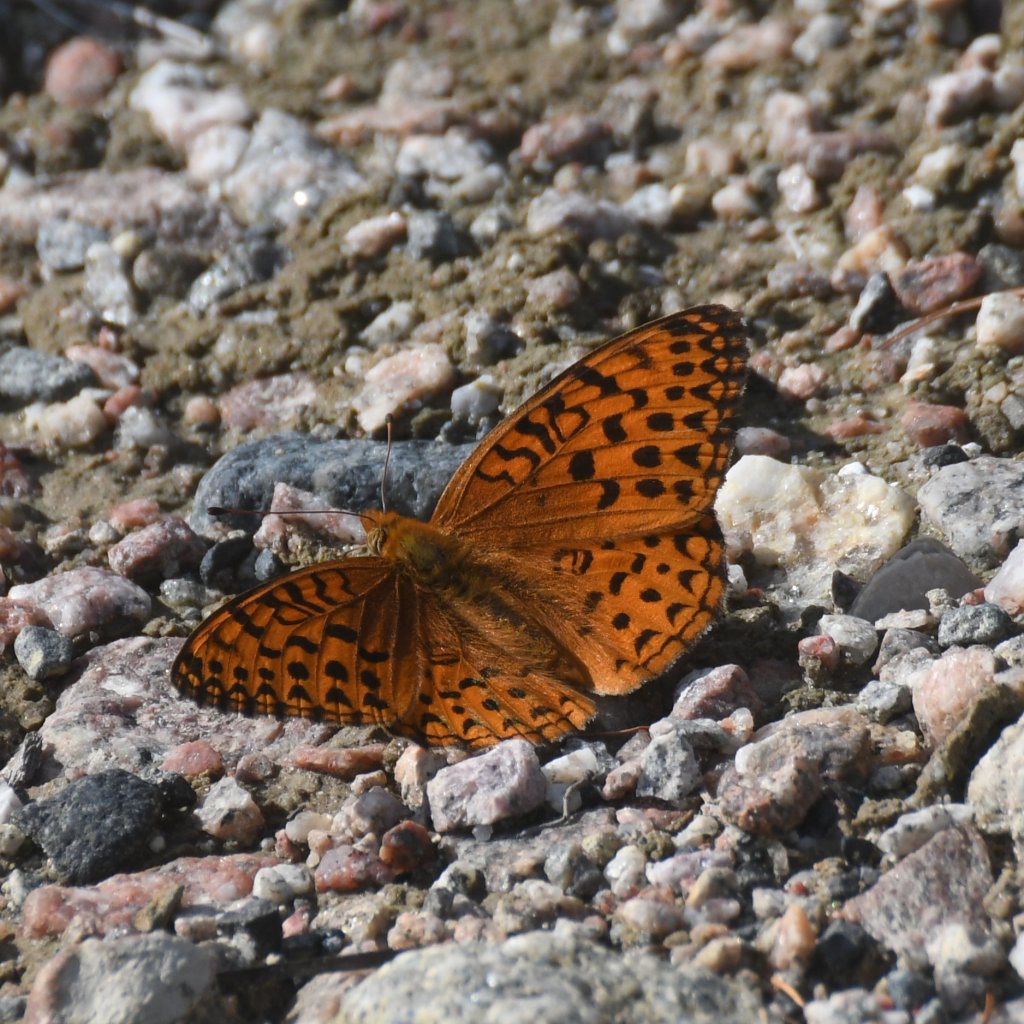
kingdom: Animalia
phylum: Arthropoda
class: Insecta
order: Lepidoptera
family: Nymphalidae
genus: Speyeria
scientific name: Speyeria aphrodite
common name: Aphrodite Fritillary
